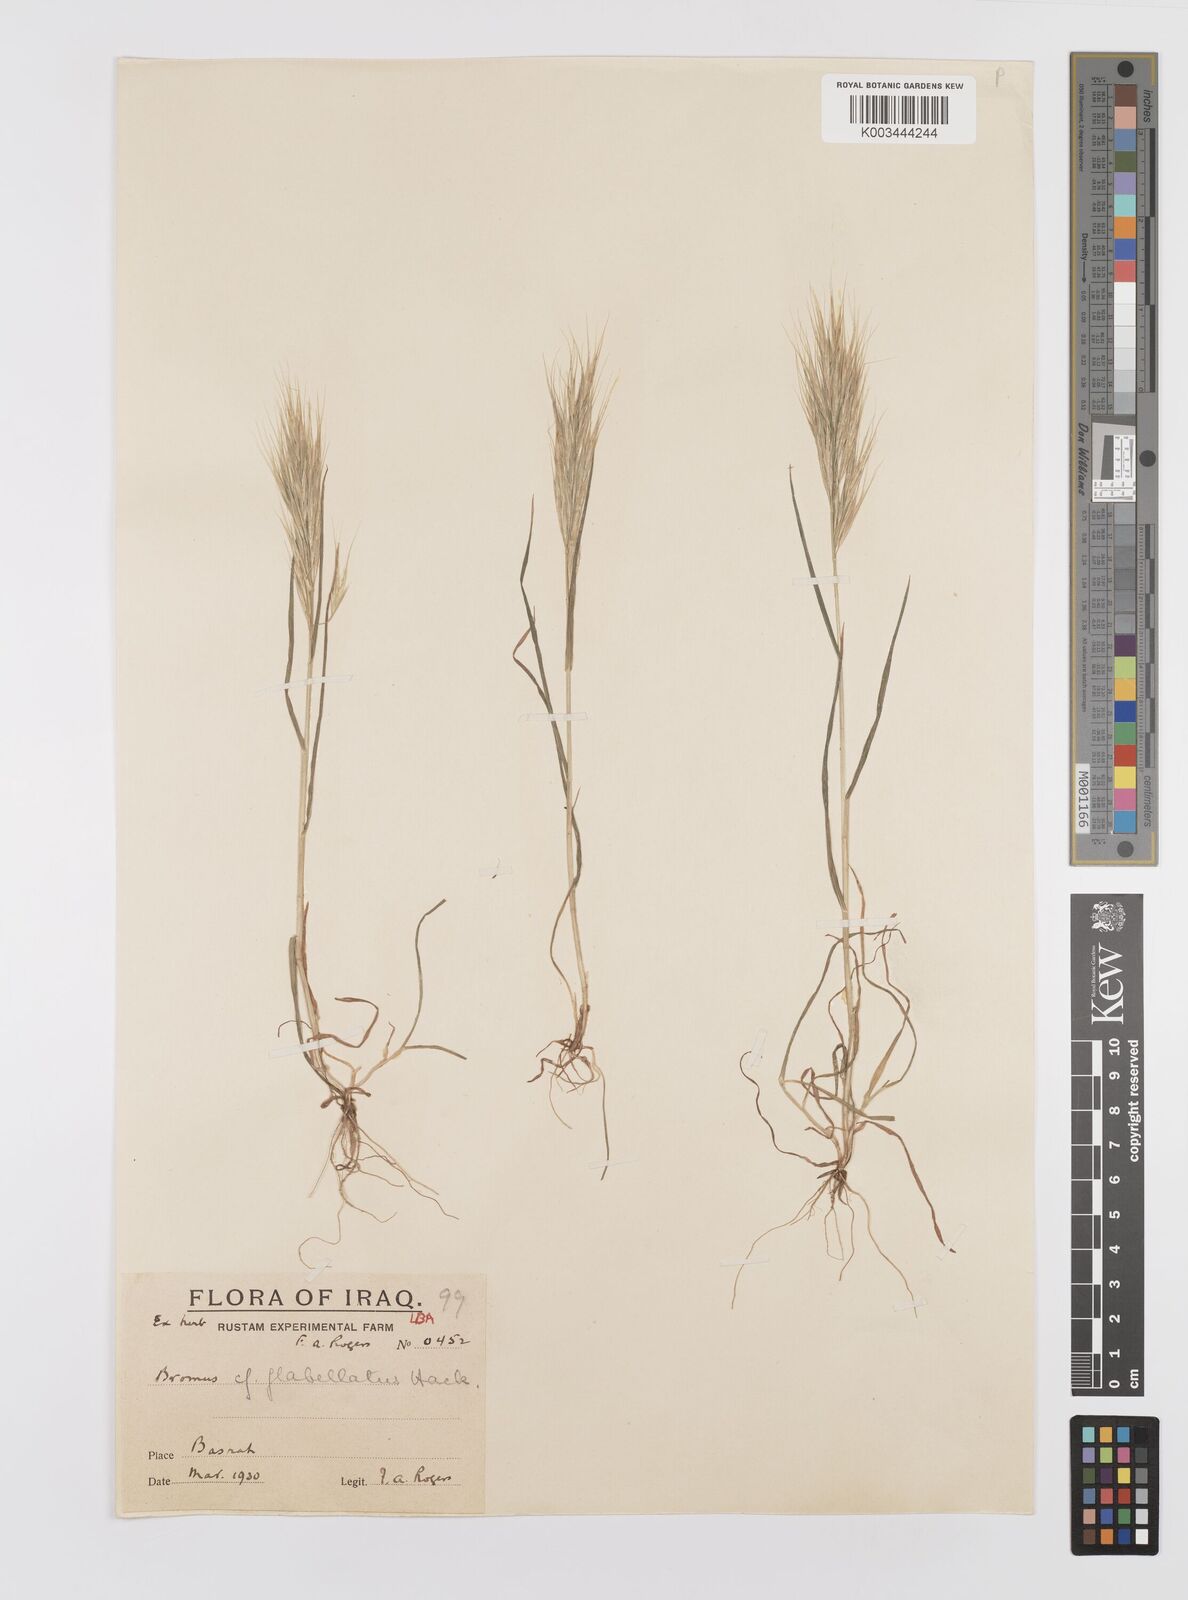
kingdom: Plantae
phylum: Tracheophyta
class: Liliopsida
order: Poales
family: Poaceae
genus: Bromus
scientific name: Bromus madritensis
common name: Compact brome
